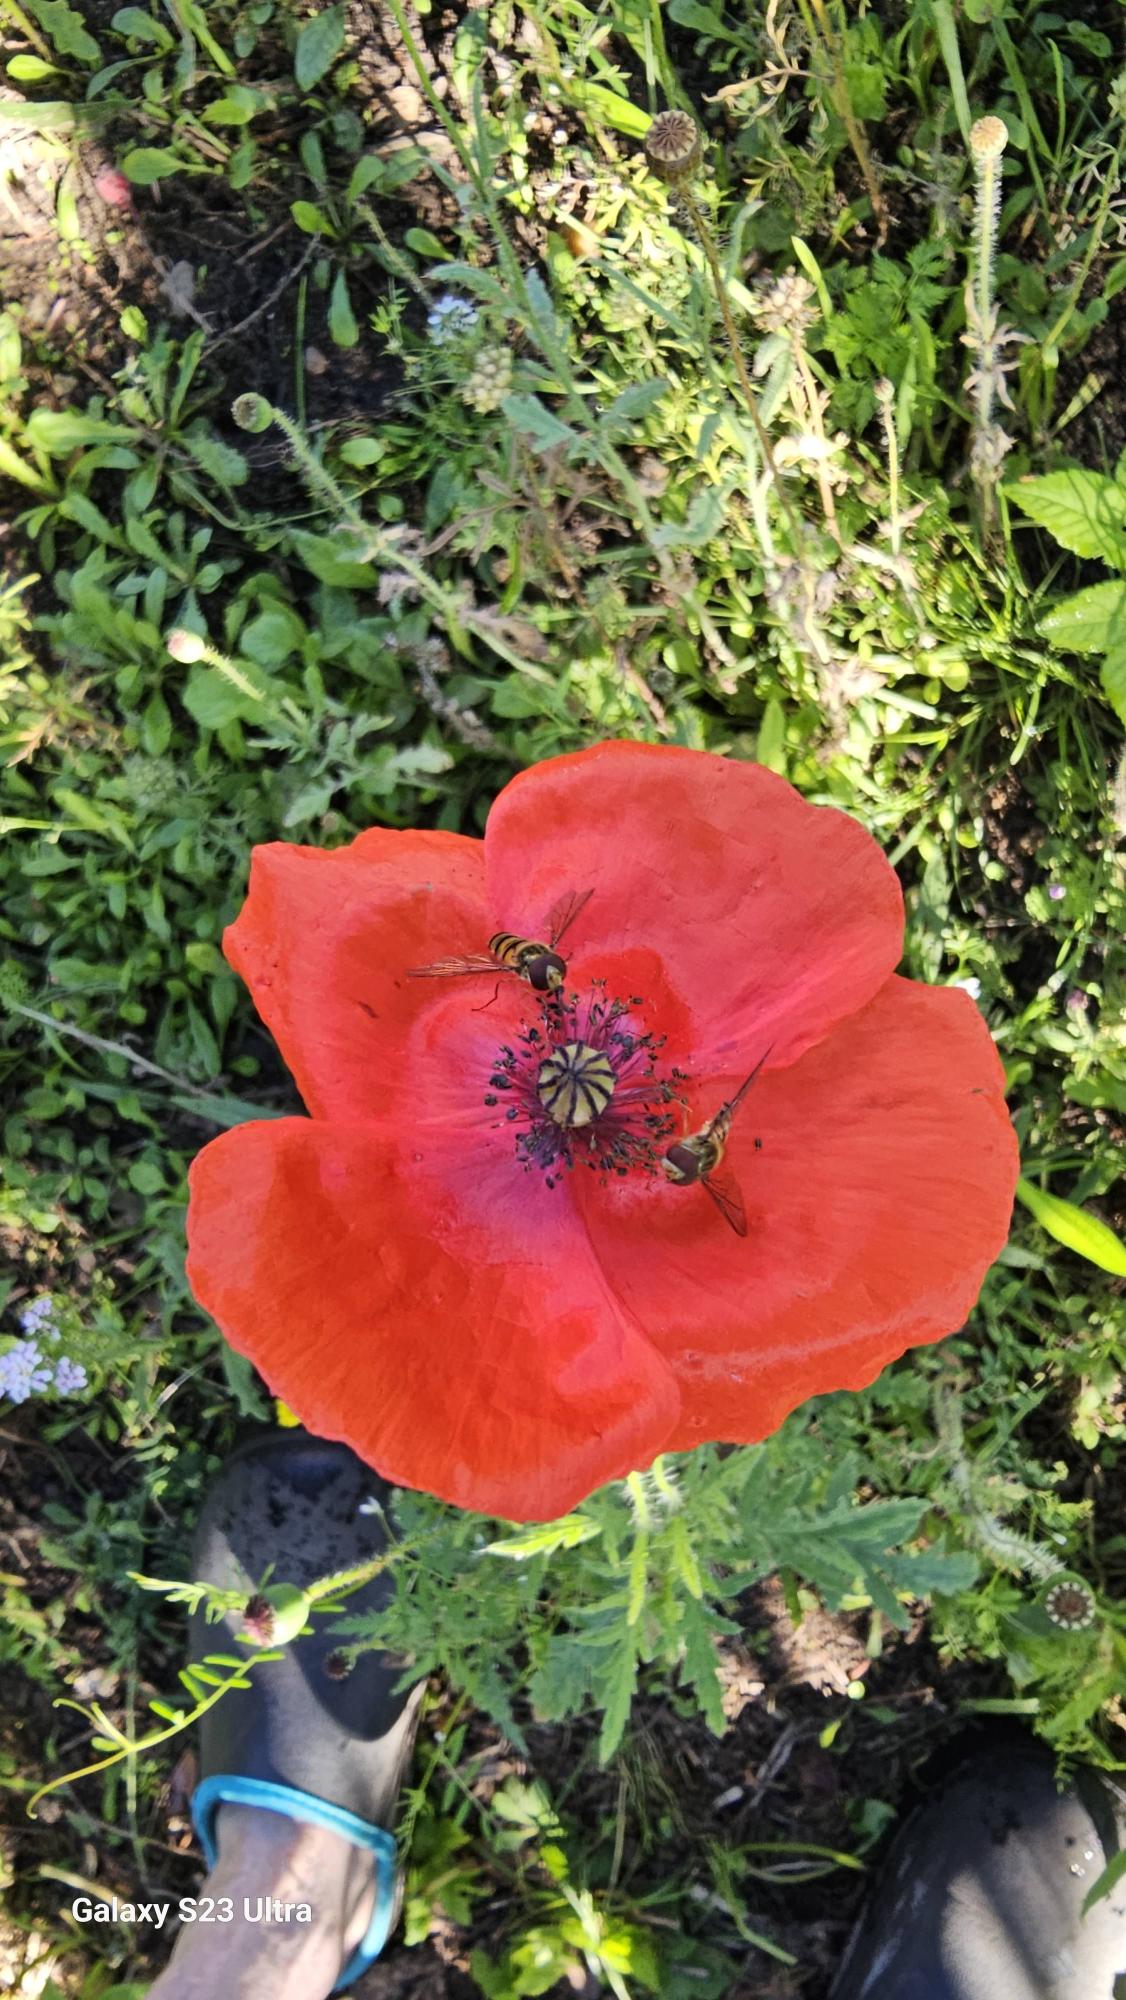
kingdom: Plantae
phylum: Tracheophyta
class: Magnoliopsida
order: Ranunculales
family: Papaveraceae
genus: Papaver
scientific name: Papaver rhoeas
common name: Korn-valmue
